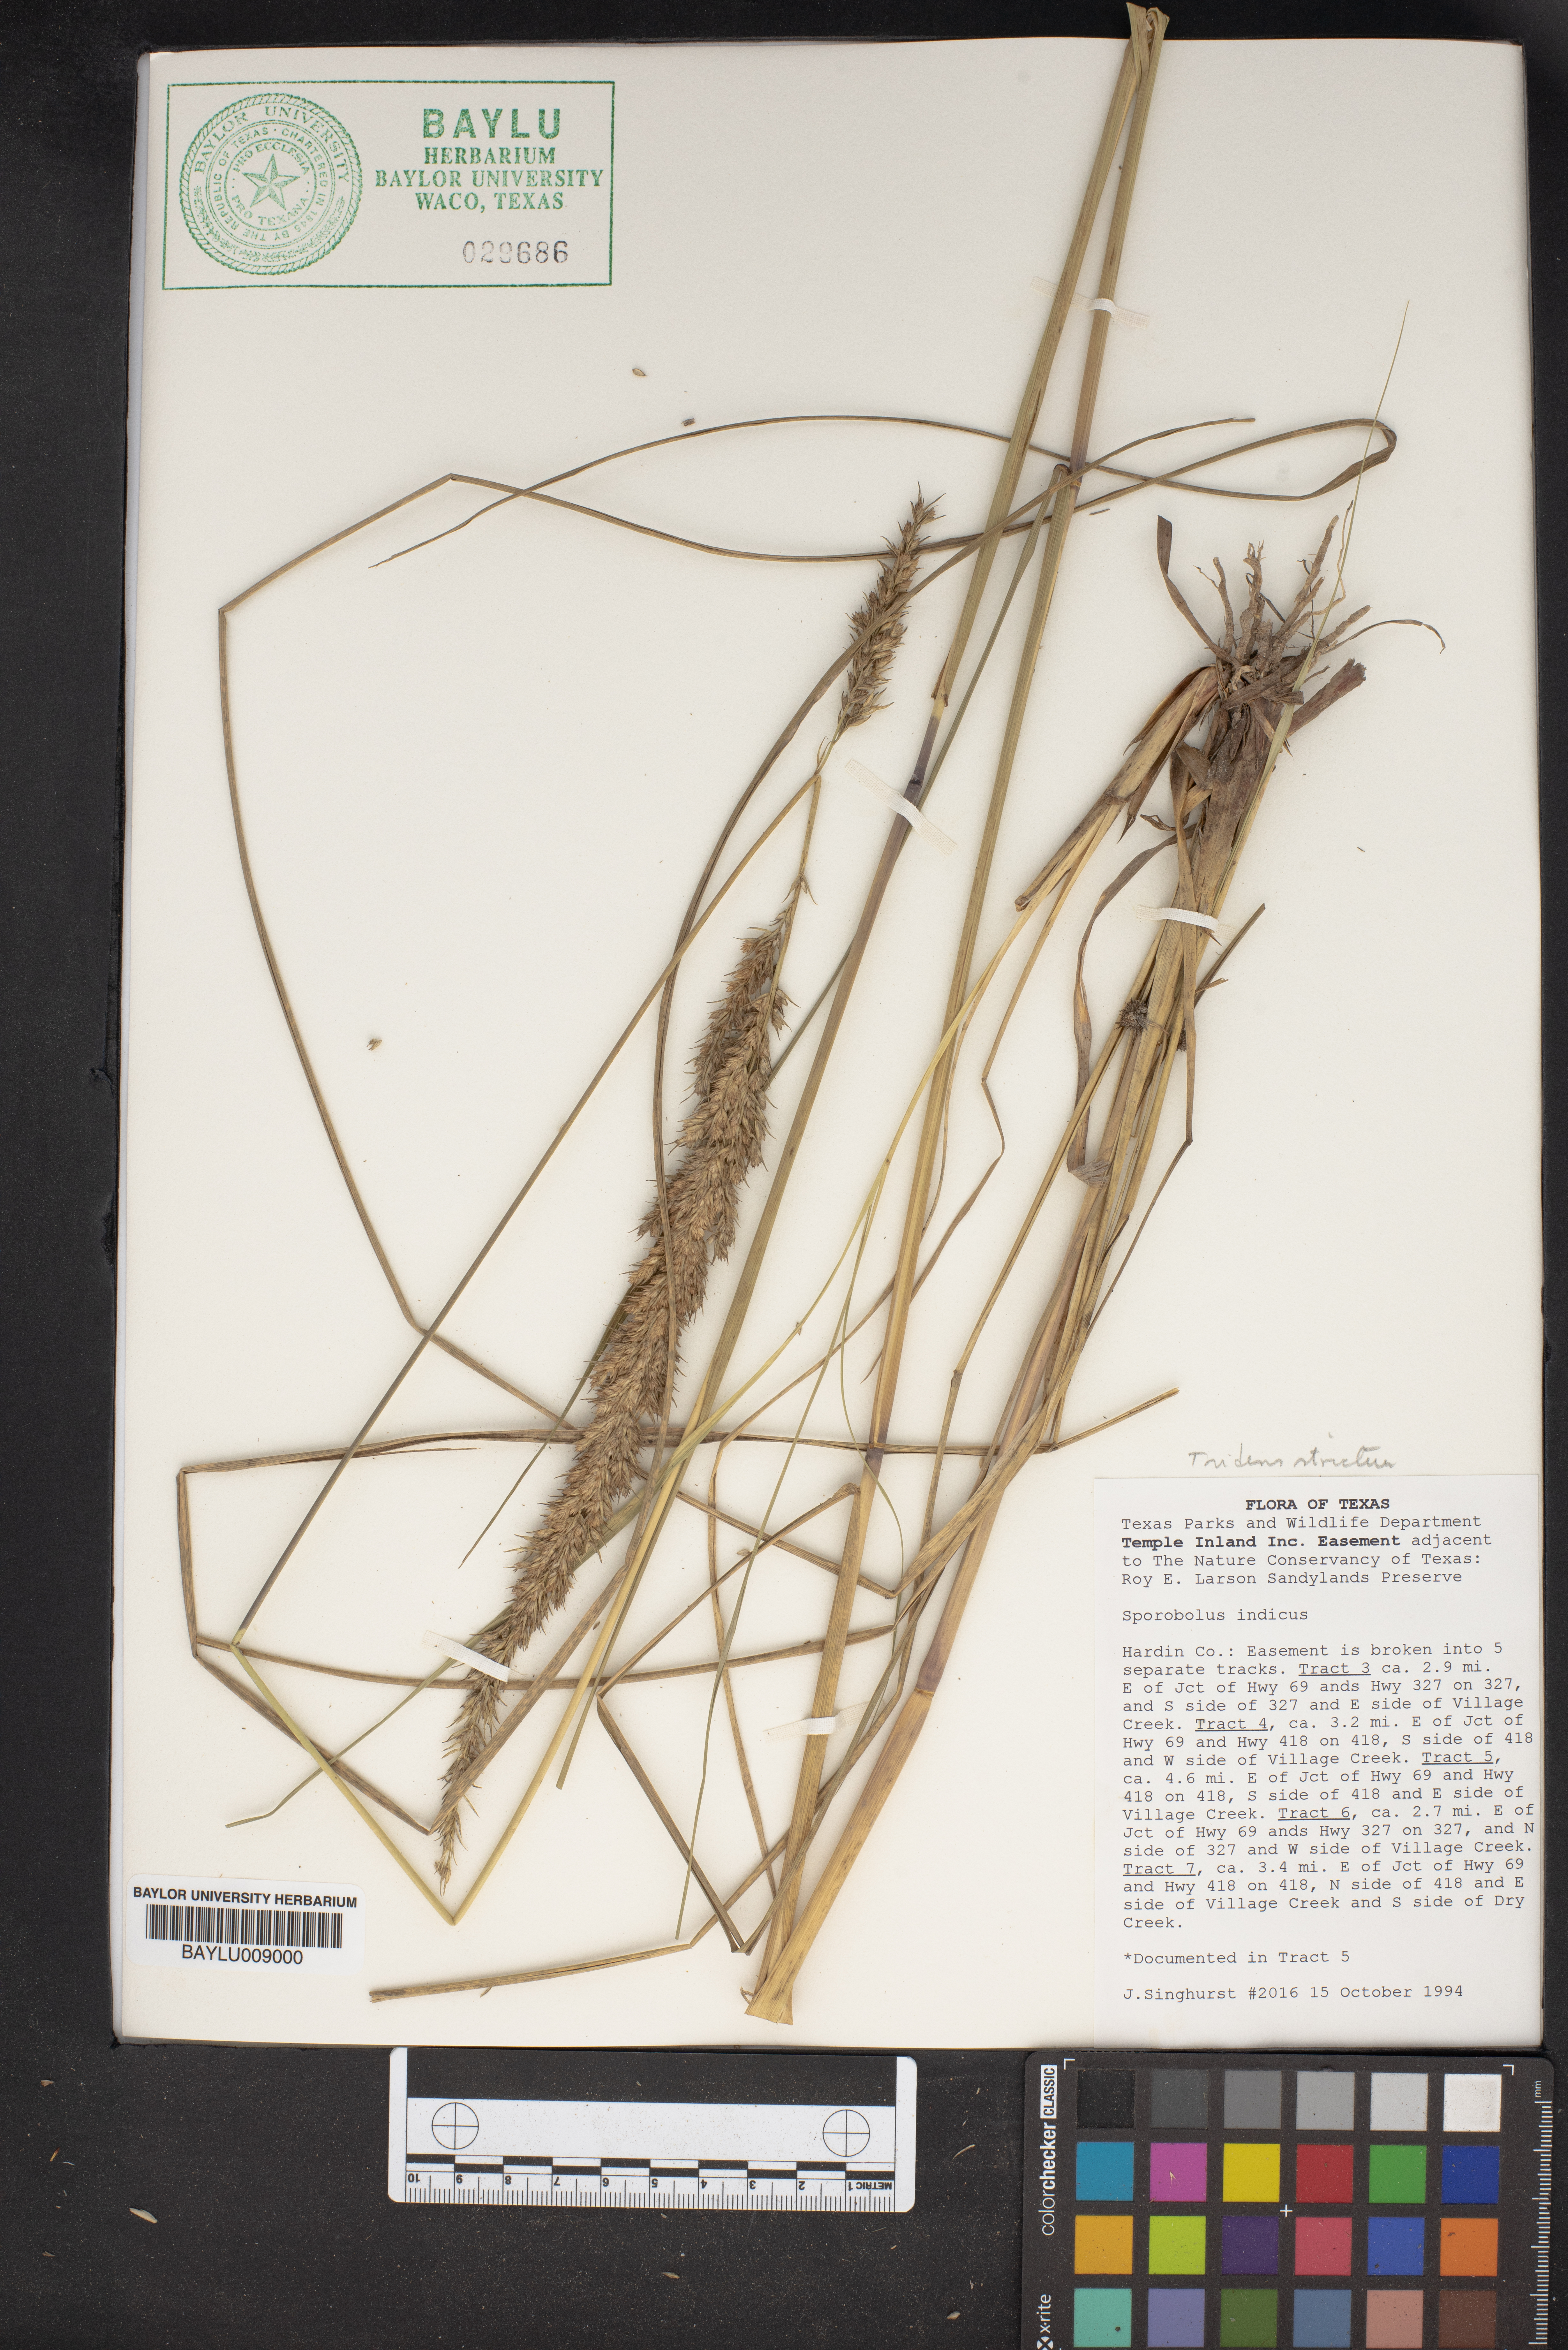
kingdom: Plantae
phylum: Tracheophyta
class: Liliopsida
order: Poales
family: Poaceae
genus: Tridens
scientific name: Tridens strictus
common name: Long-spike tridens
